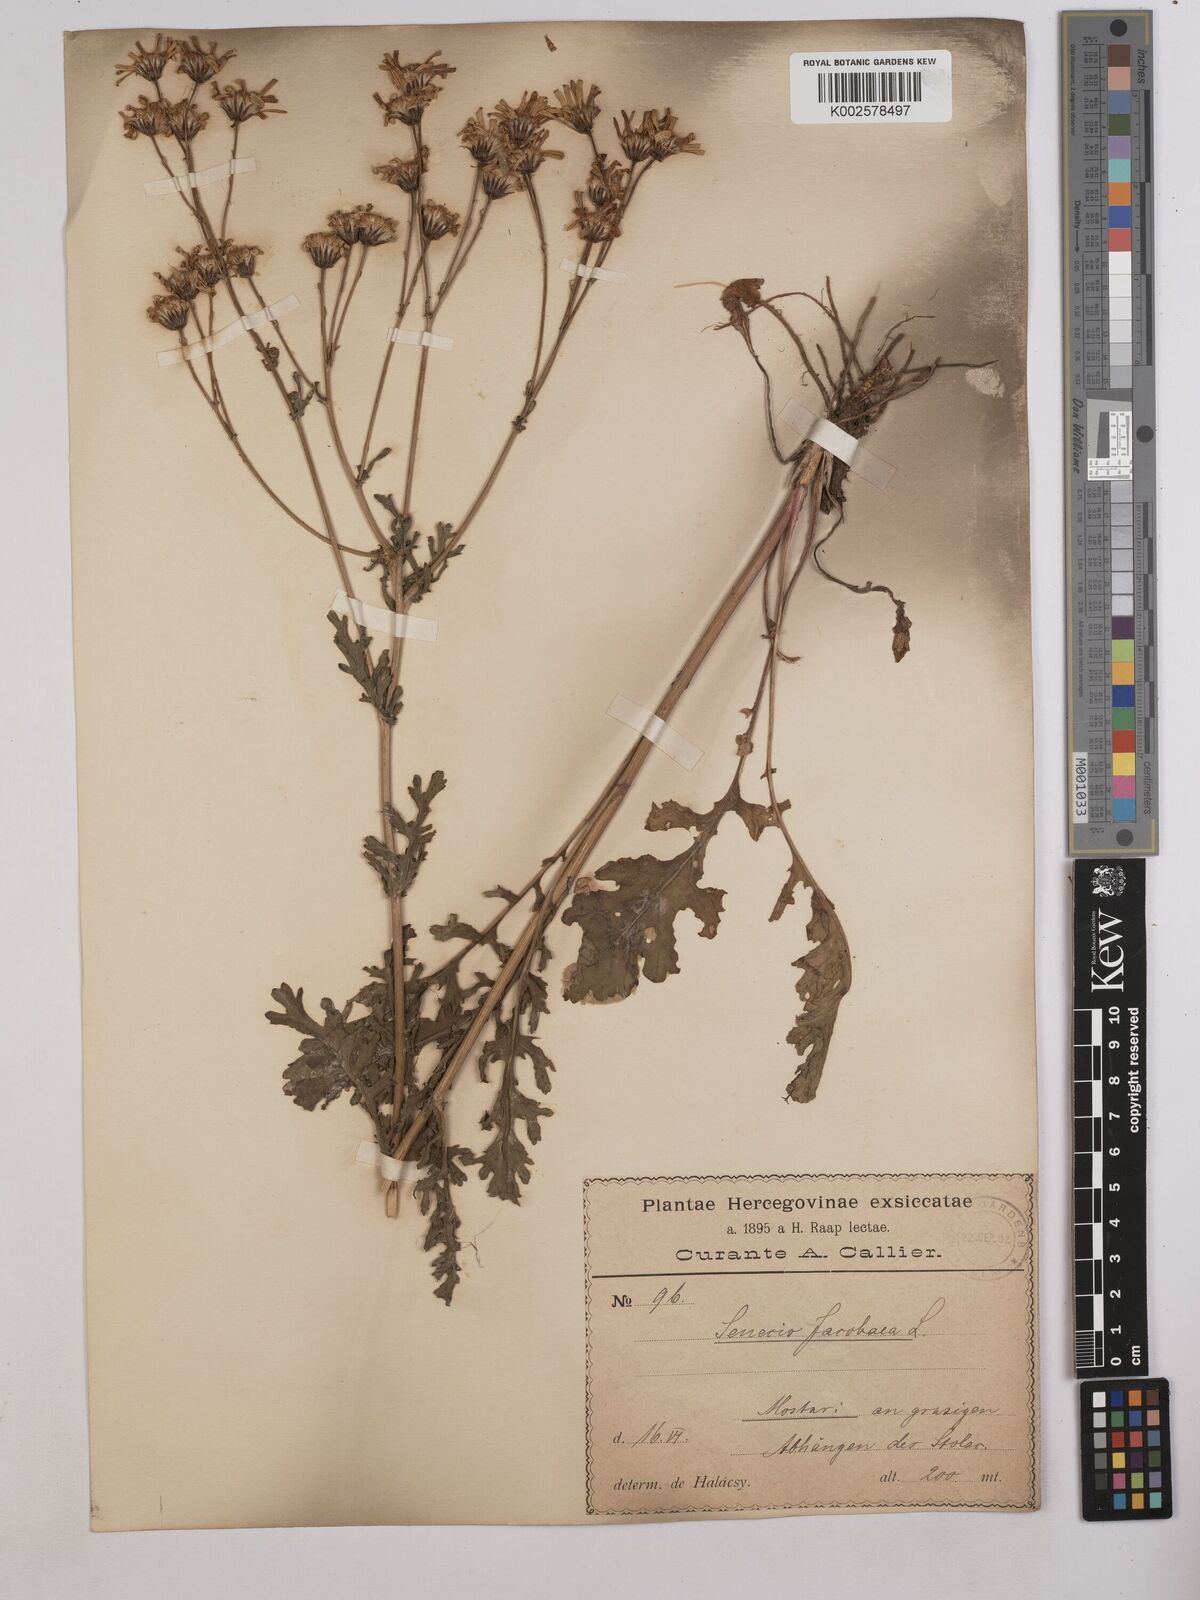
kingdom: Plantae
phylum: Tracheophyta
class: Magnoliopsida
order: Asterales
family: Asteraceae
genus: Jacobaea
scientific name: Jacobaea vulgaris
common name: Stinking willie
